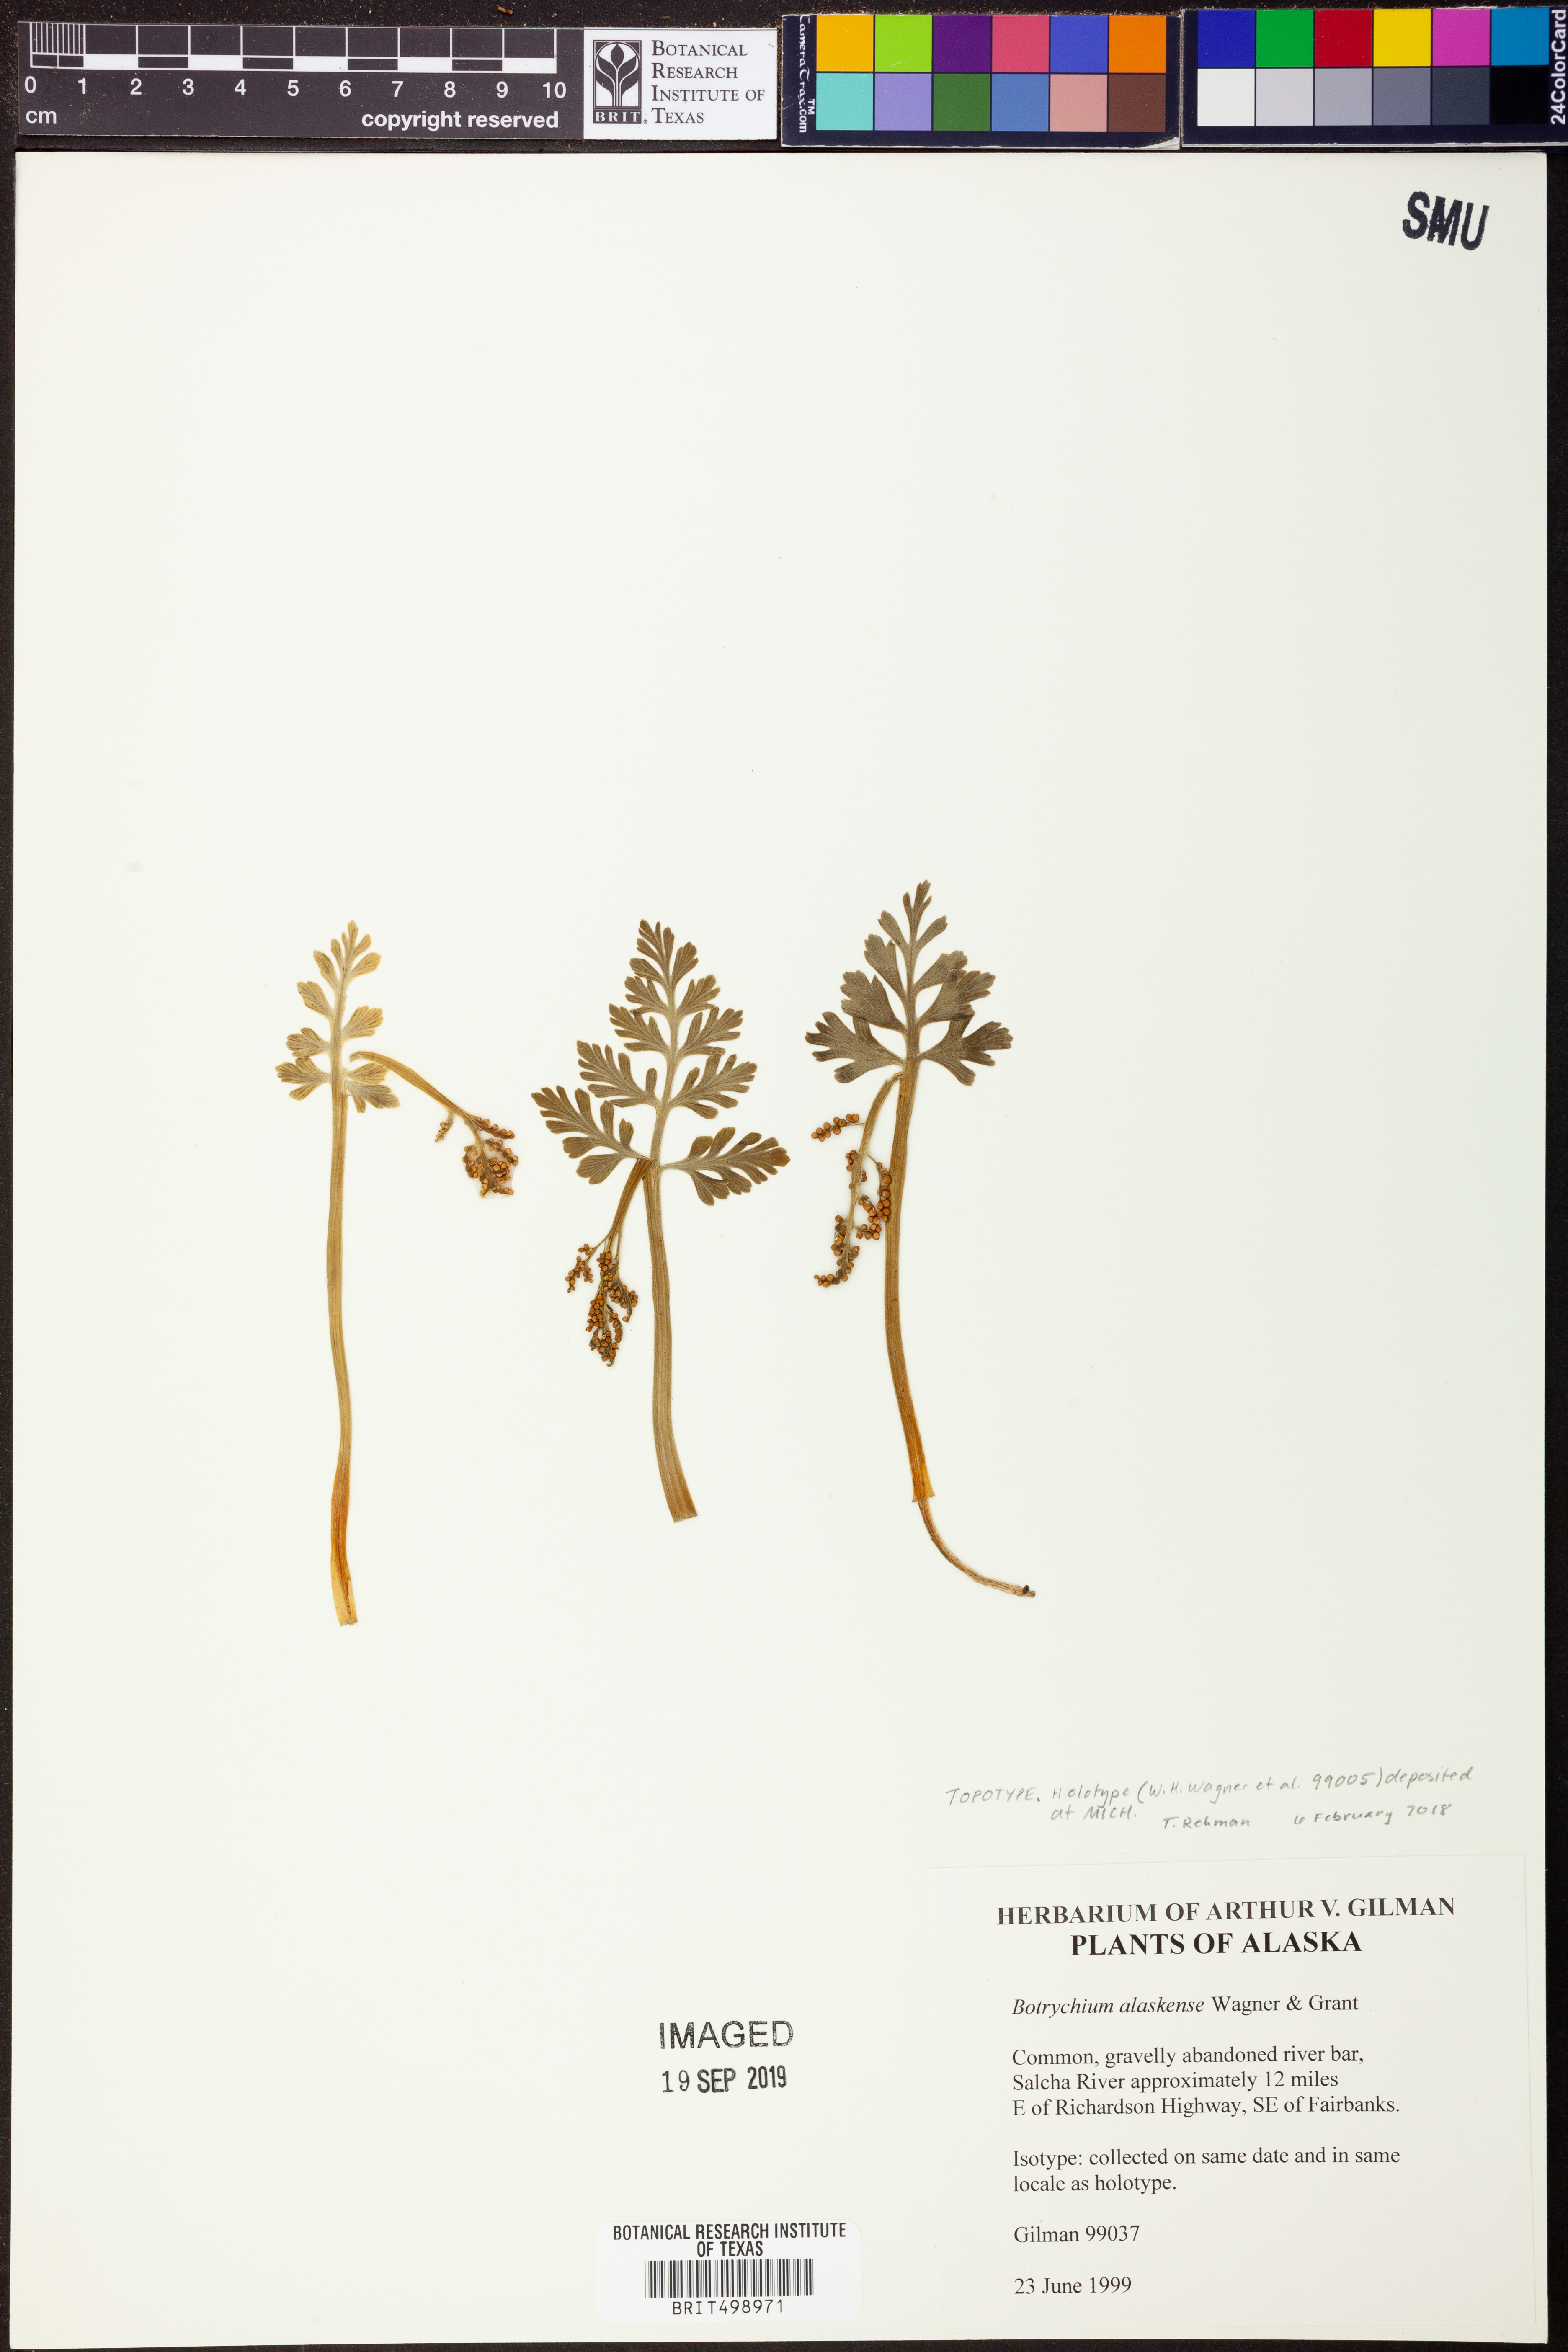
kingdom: Plantae
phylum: Tracheophyta
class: Polypodiopsida
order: Ophioglossales
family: Ophioglossaceae
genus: Botrychium
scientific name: Botrychium alaskense
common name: Alaska moonwort
